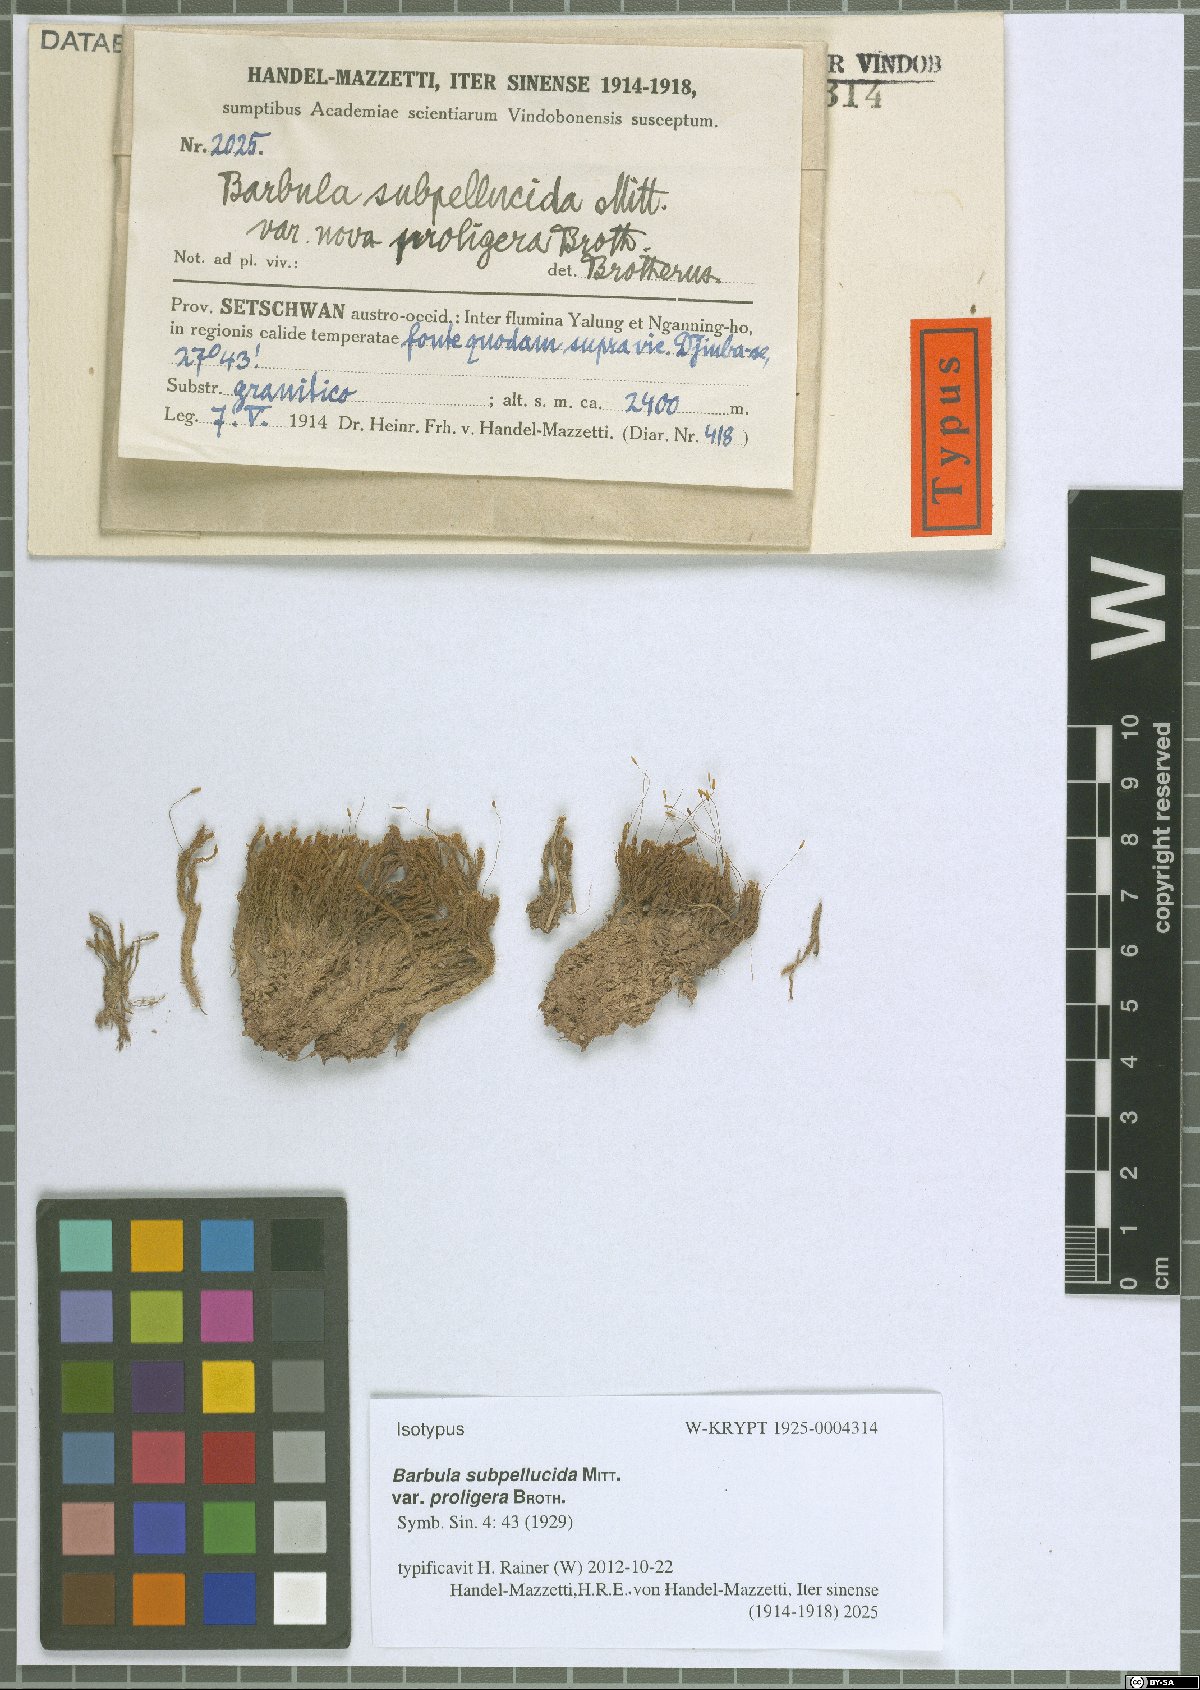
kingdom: Plantae
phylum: Bryophyta
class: Bryopsida
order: Pottiales
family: Pottiaceae
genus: Hydrogonium
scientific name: Hydrogonium bolleanum
